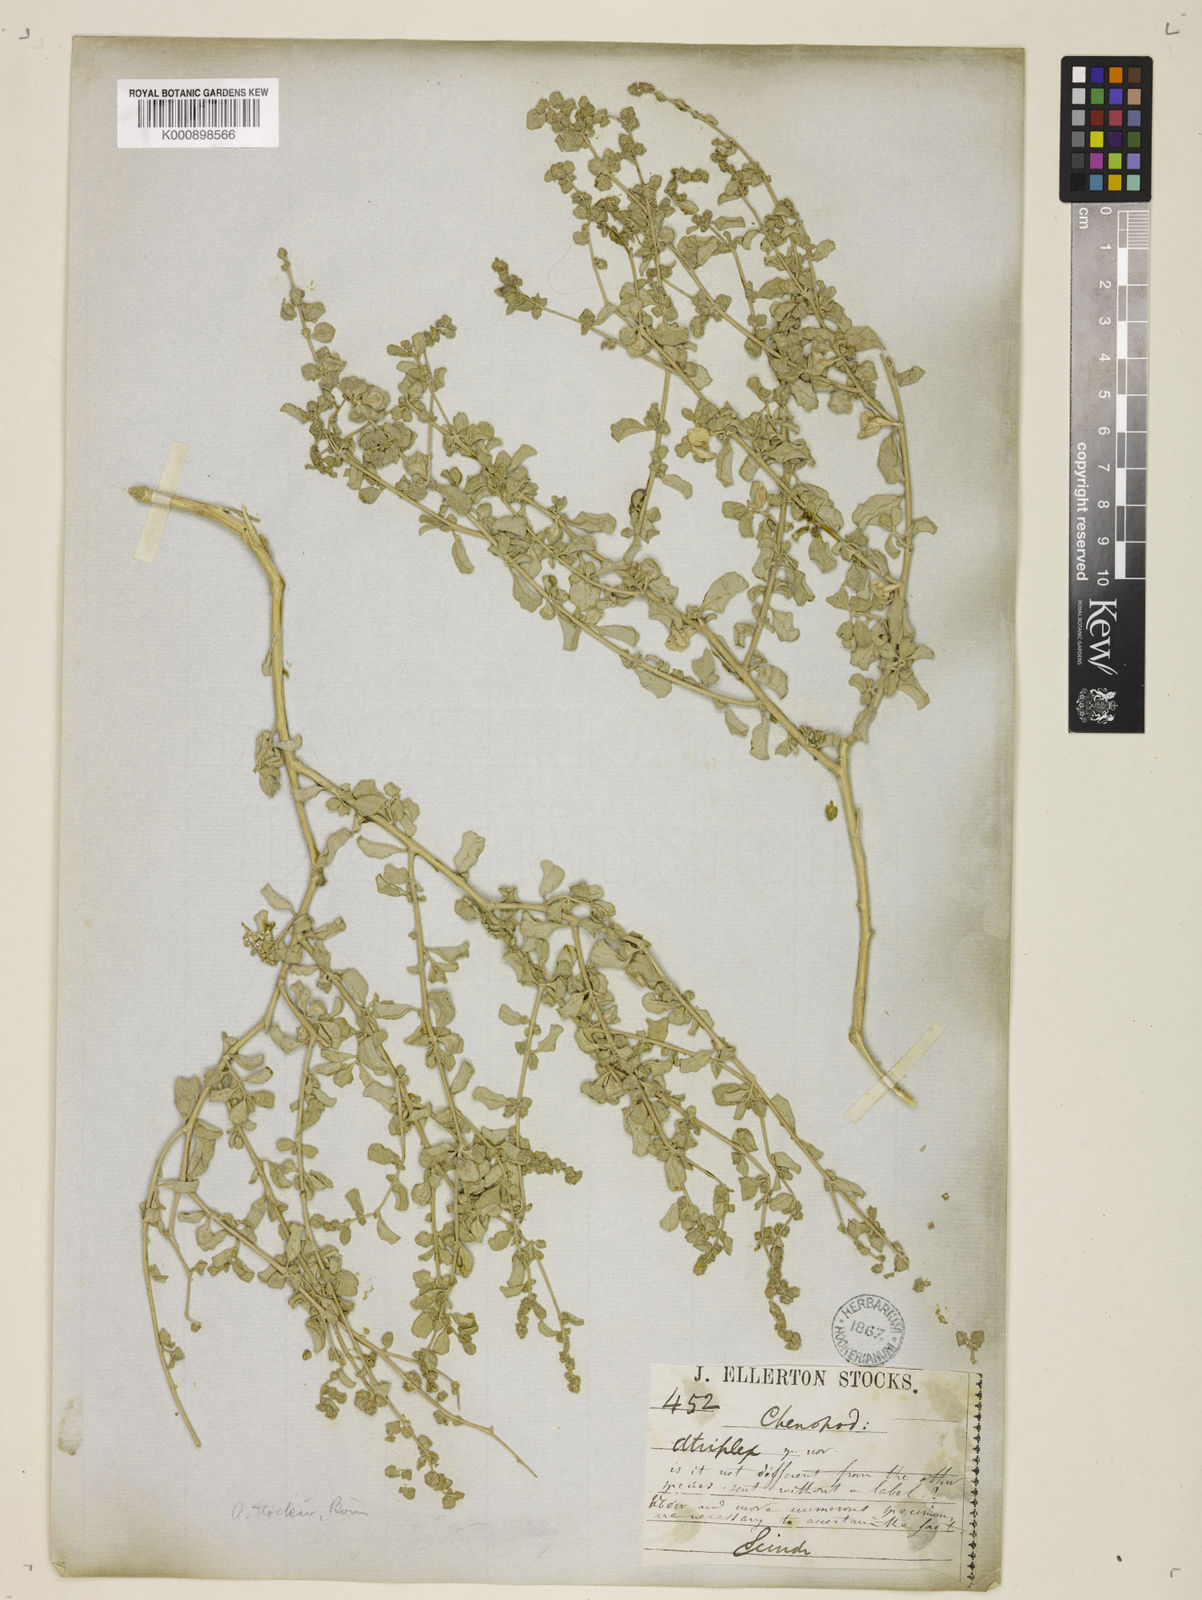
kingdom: Plantae
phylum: Tracheophyta
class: Magnoliopsida
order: Caryophyllales
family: Amaranthaceae
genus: Atriplex
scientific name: Atriplex stocksii
